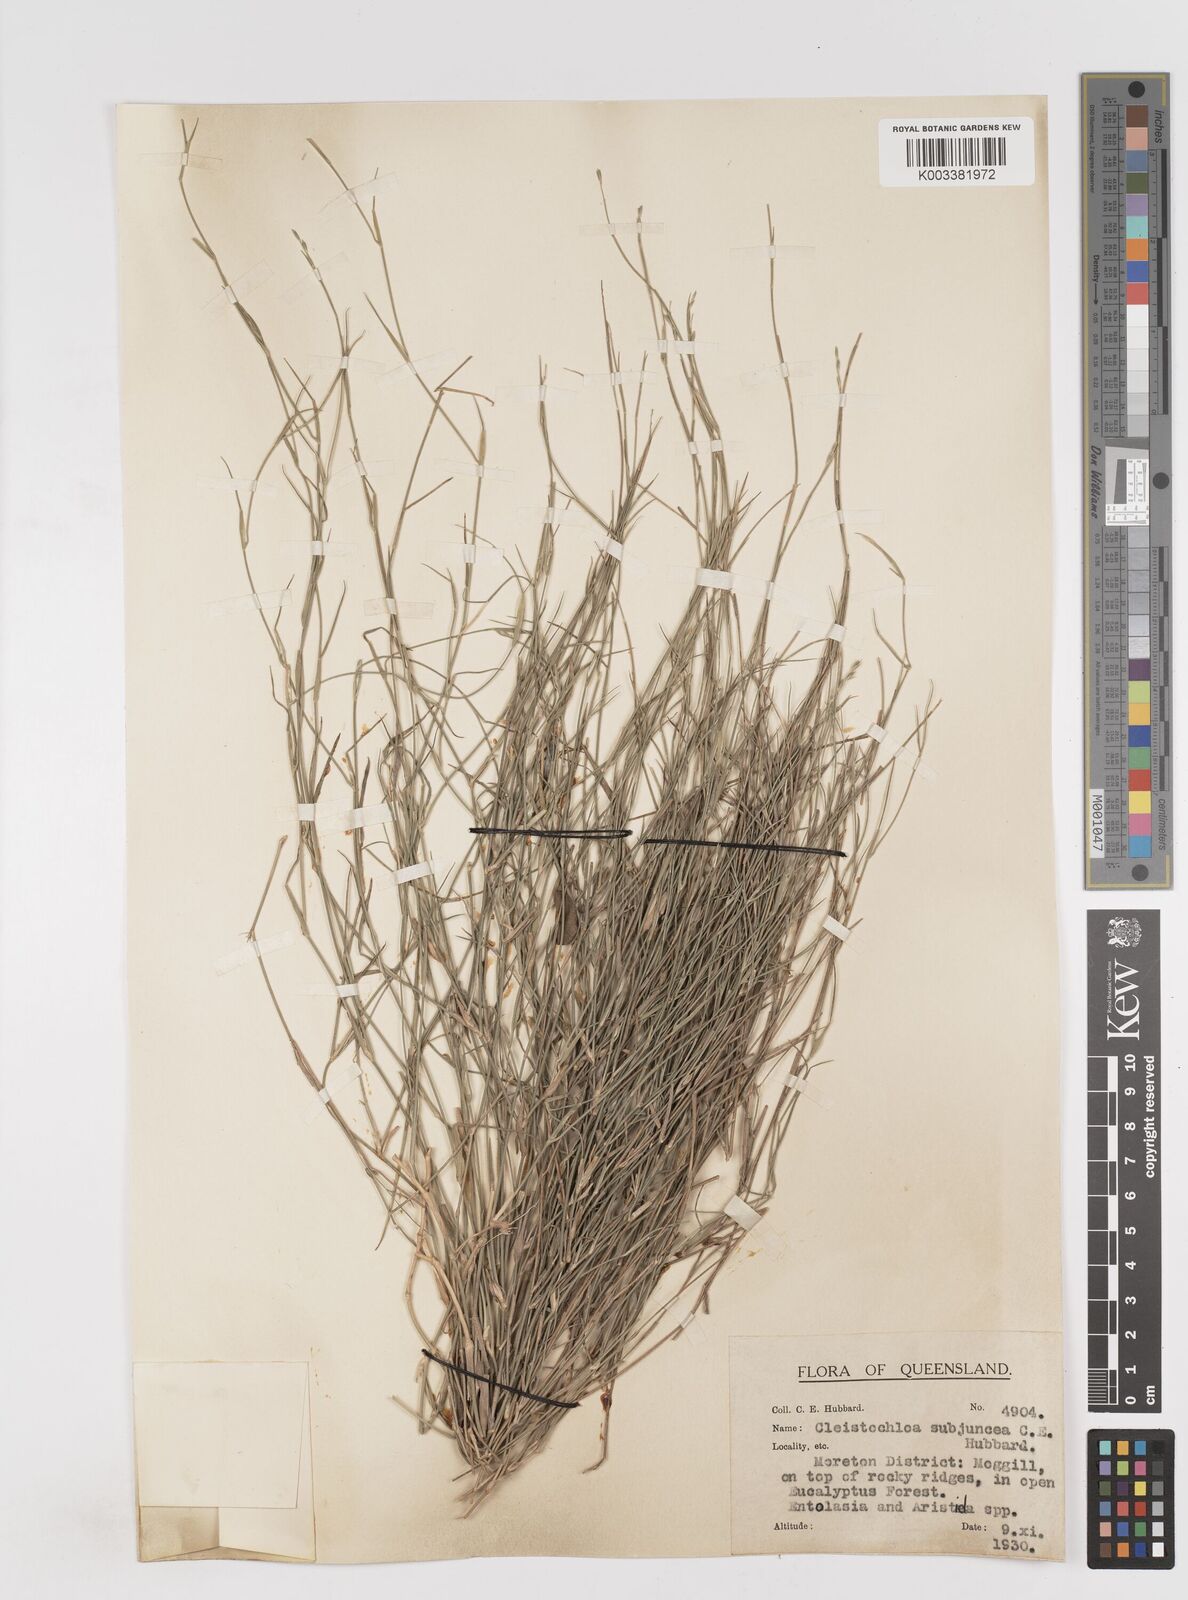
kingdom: Plantae
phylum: Tracheophyta
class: Liliopsida
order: Poales
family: Poaceae
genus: Cleistochloa
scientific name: Cleistochloa subjuncea
